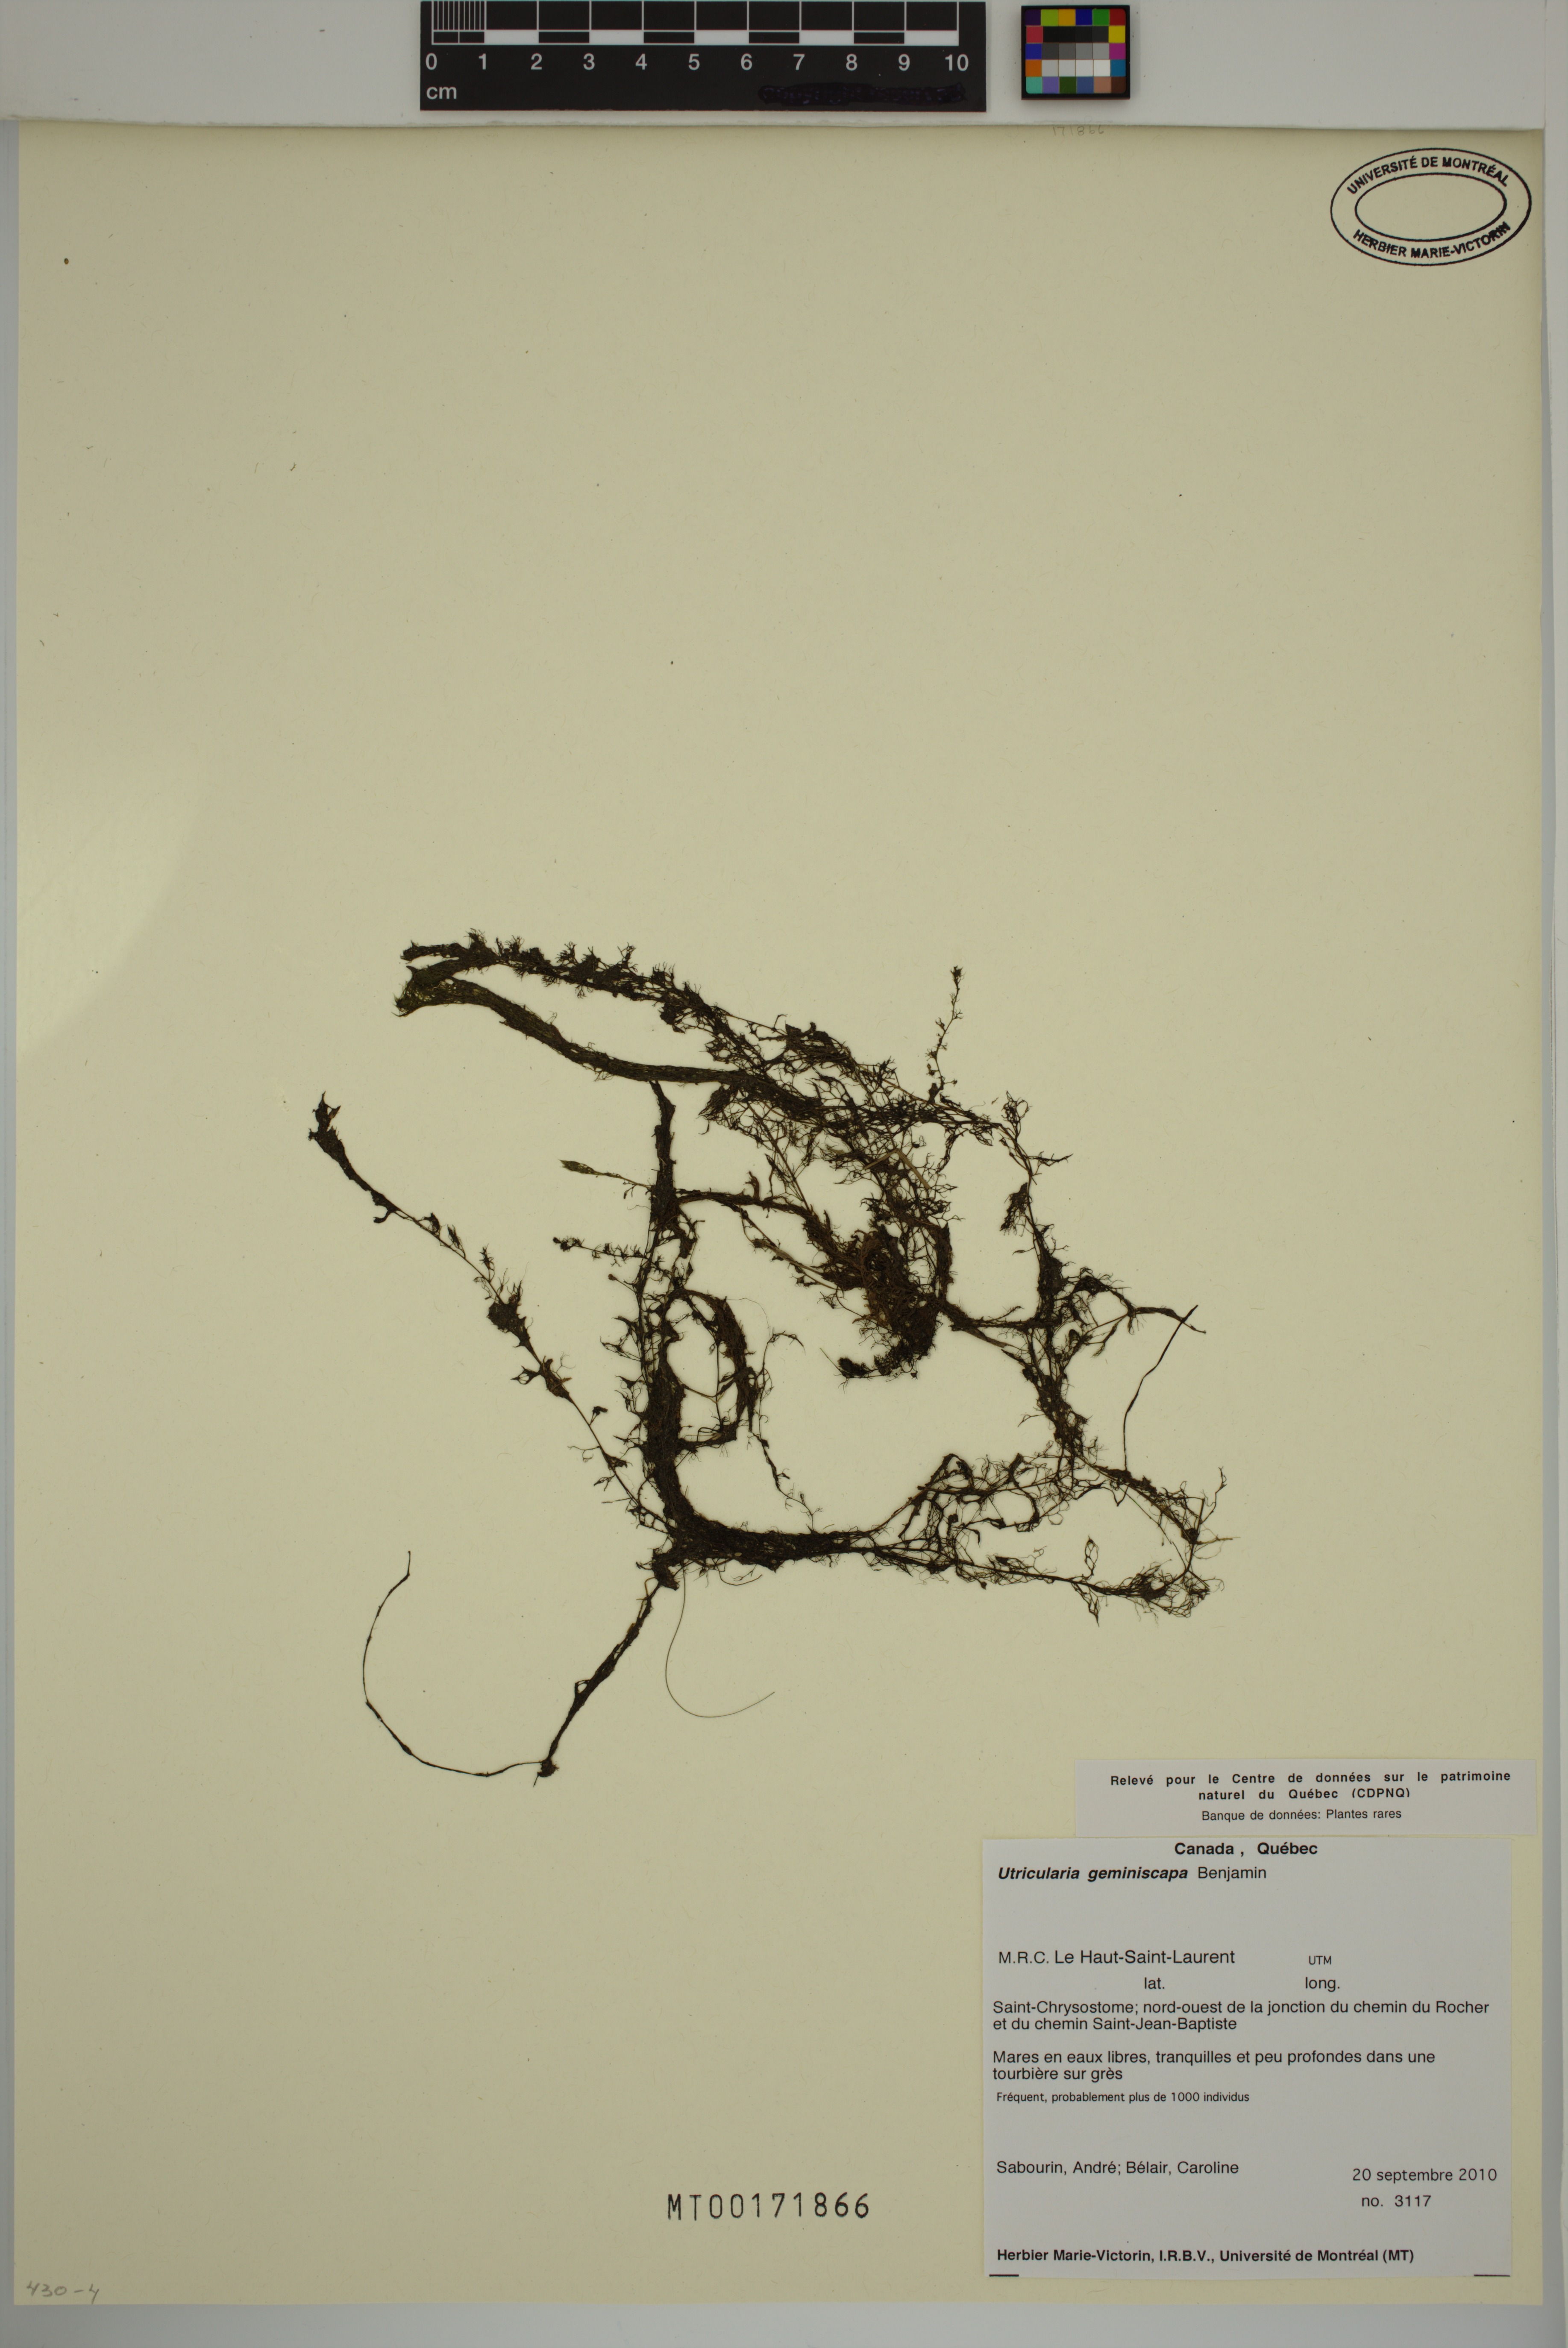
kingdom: Plantae
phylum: Tracheophyta
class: Magnoliopsida
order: Lamiales
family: Lentibulariaceae
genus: Utricularia
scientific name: Utricularia geminiscapa
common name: Hidden-fruit bladderwort
